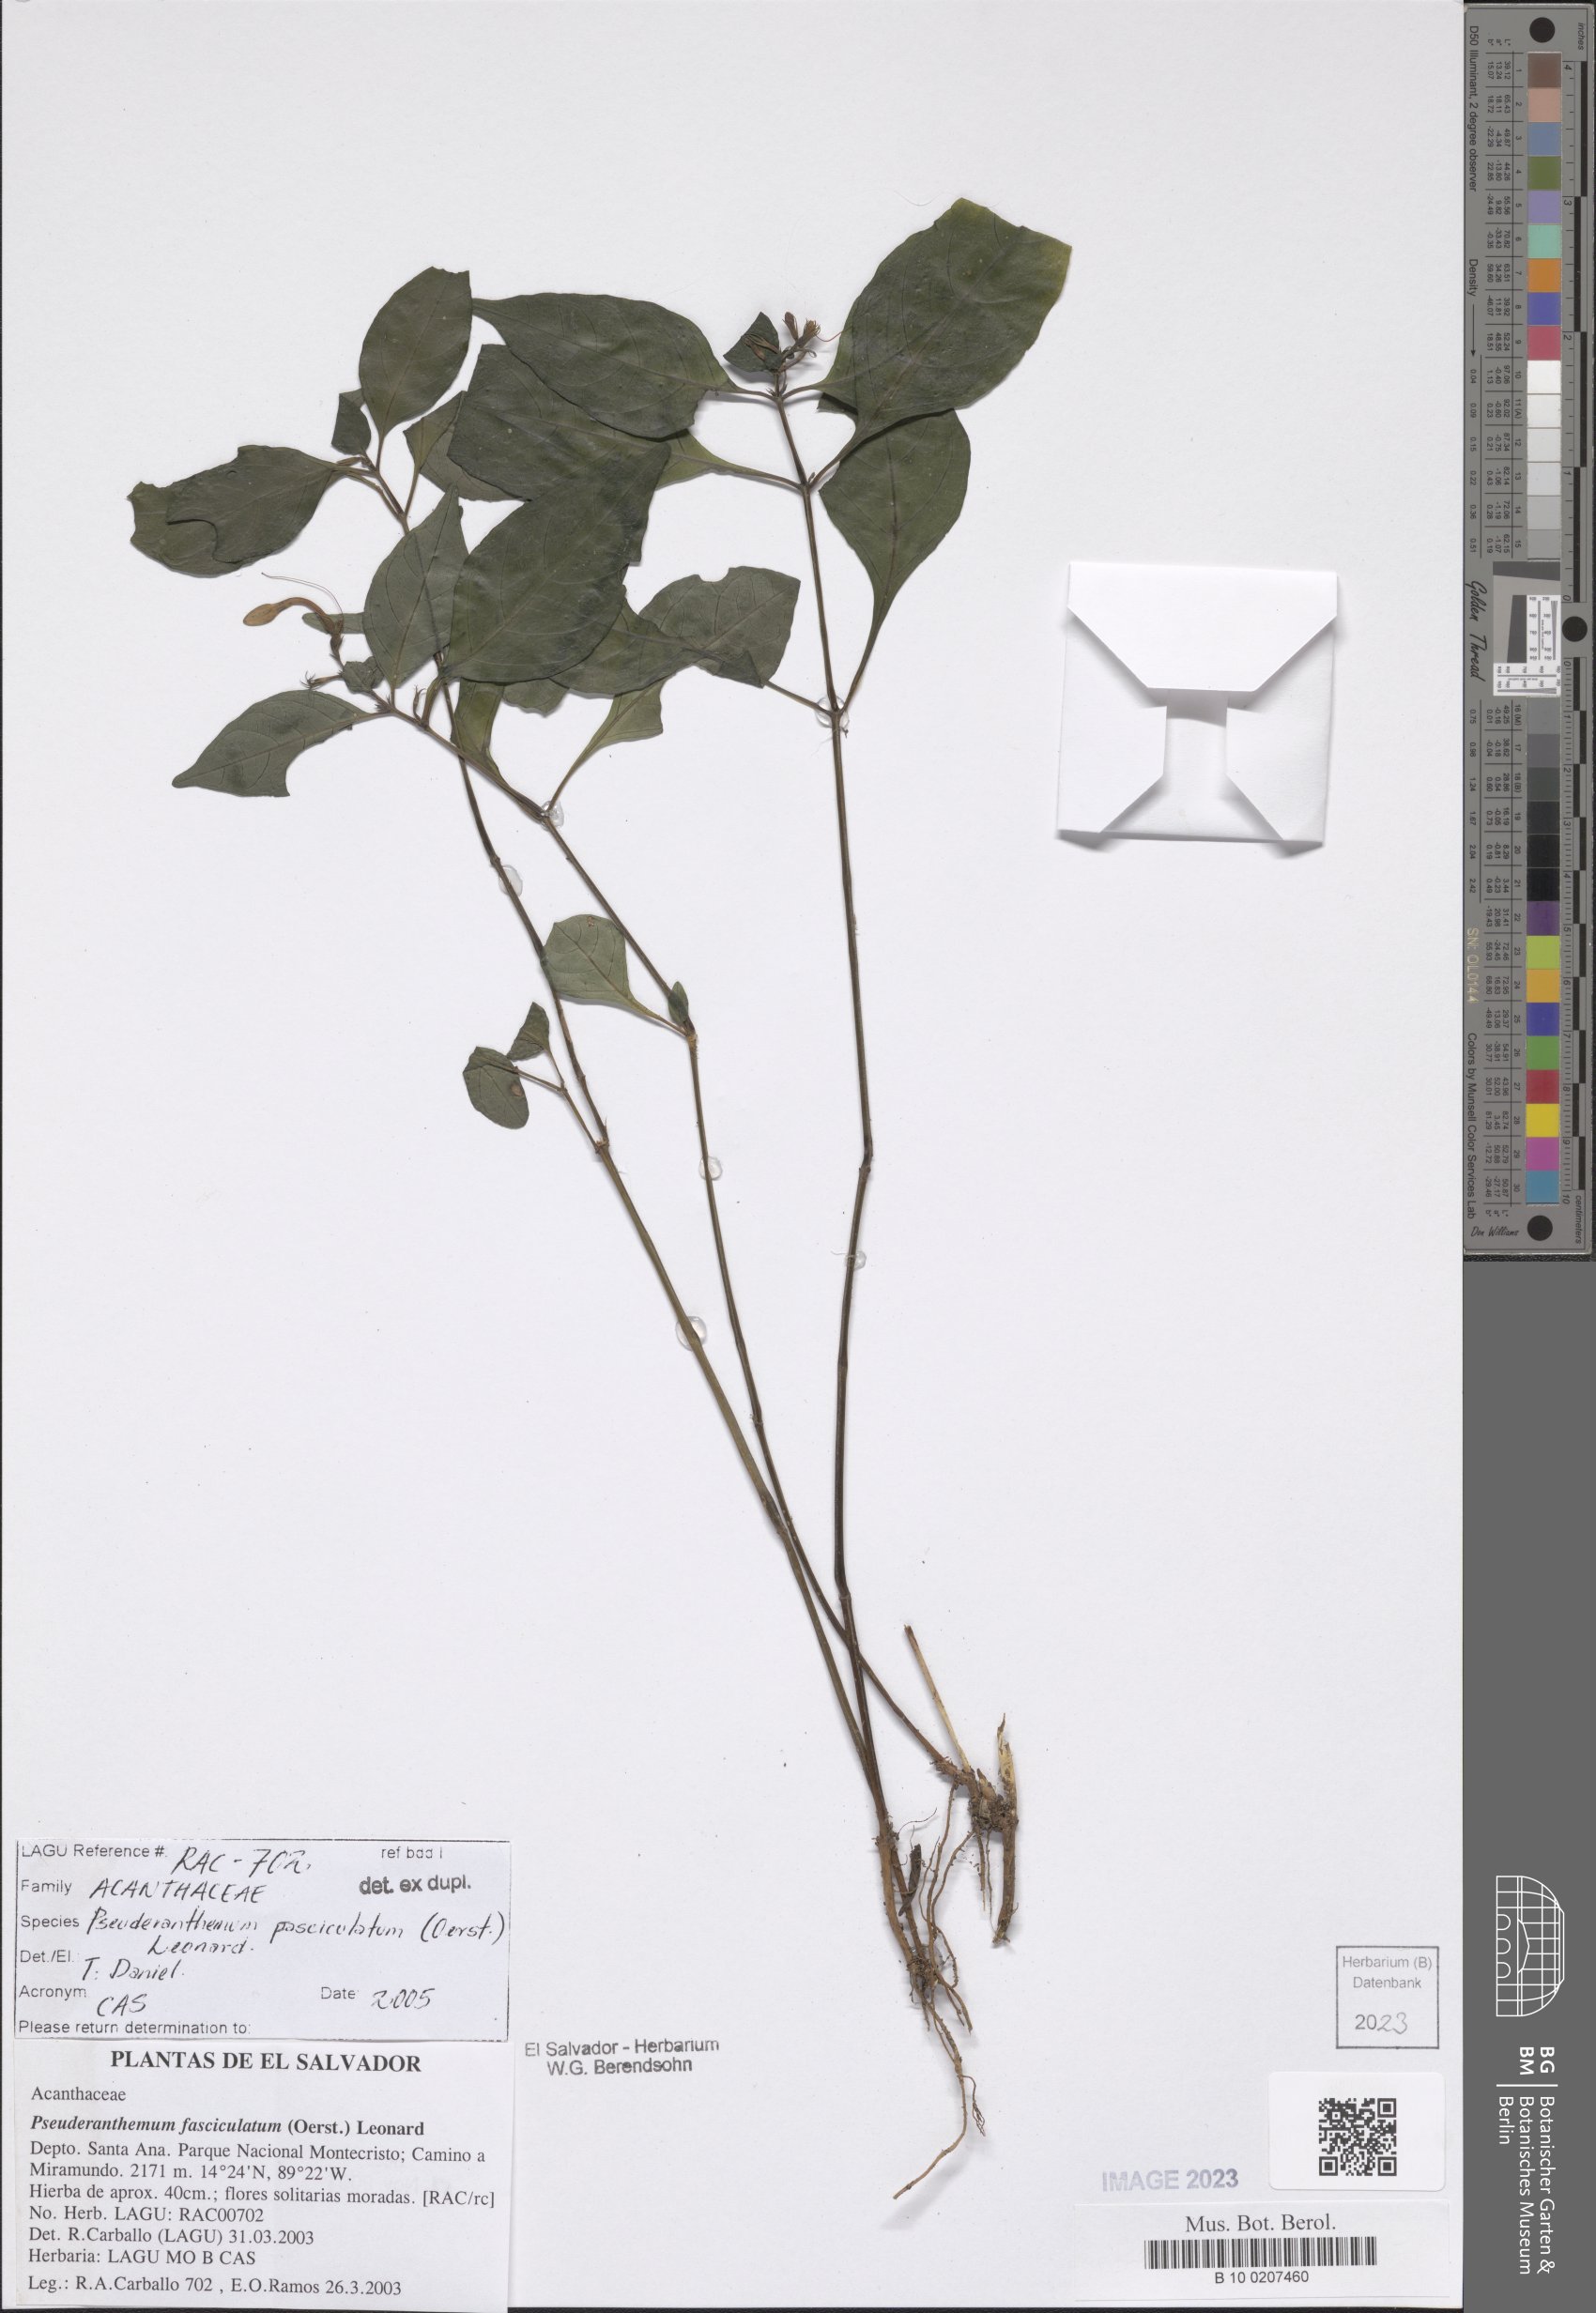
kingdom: Plantae
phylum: Tracheophyta
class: Magnoliopsida
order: Lamiales
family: Acanthaceae
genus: Pseuderanthemum
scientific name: Pseuderanthemum fasciculatum
